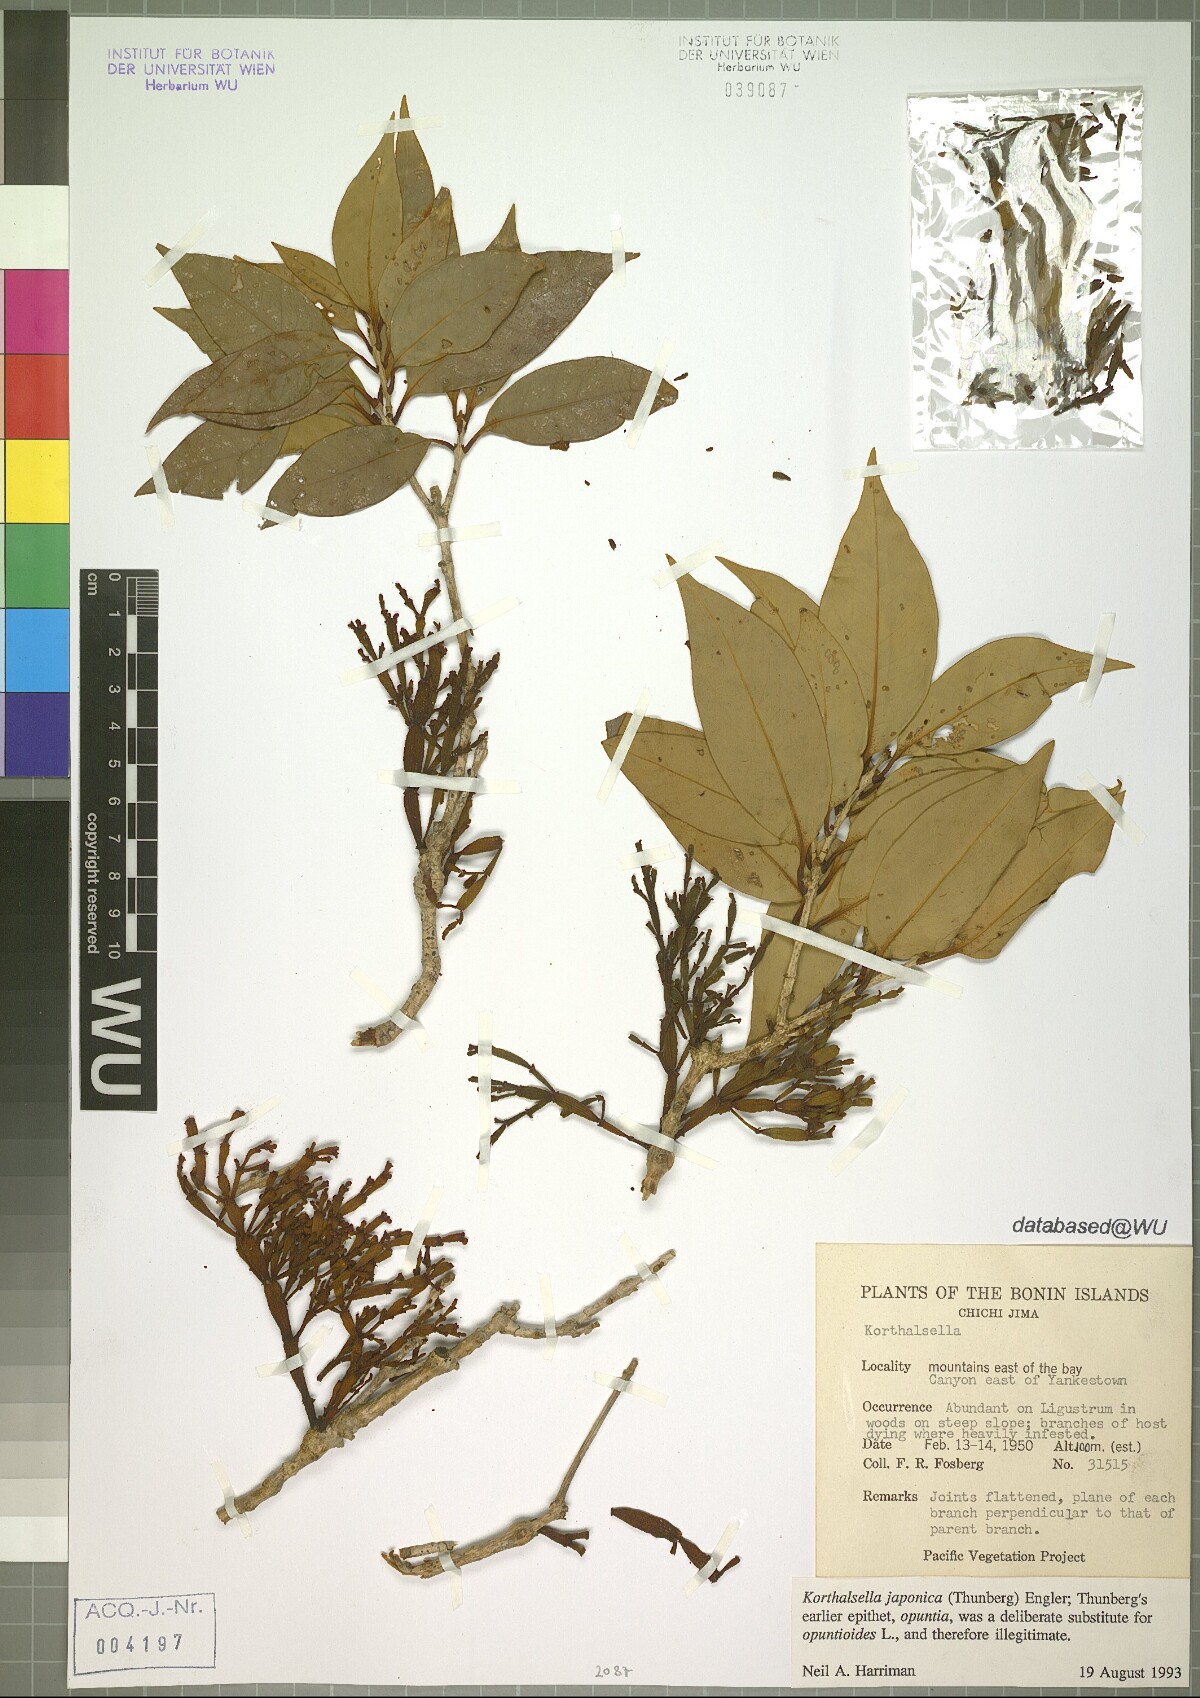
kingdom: Plantae
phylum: Tracheophyta
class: Magnoliopsida
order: Santalales
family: Viscaceae
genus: Korthalsella
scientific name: Korthalsella japonica
